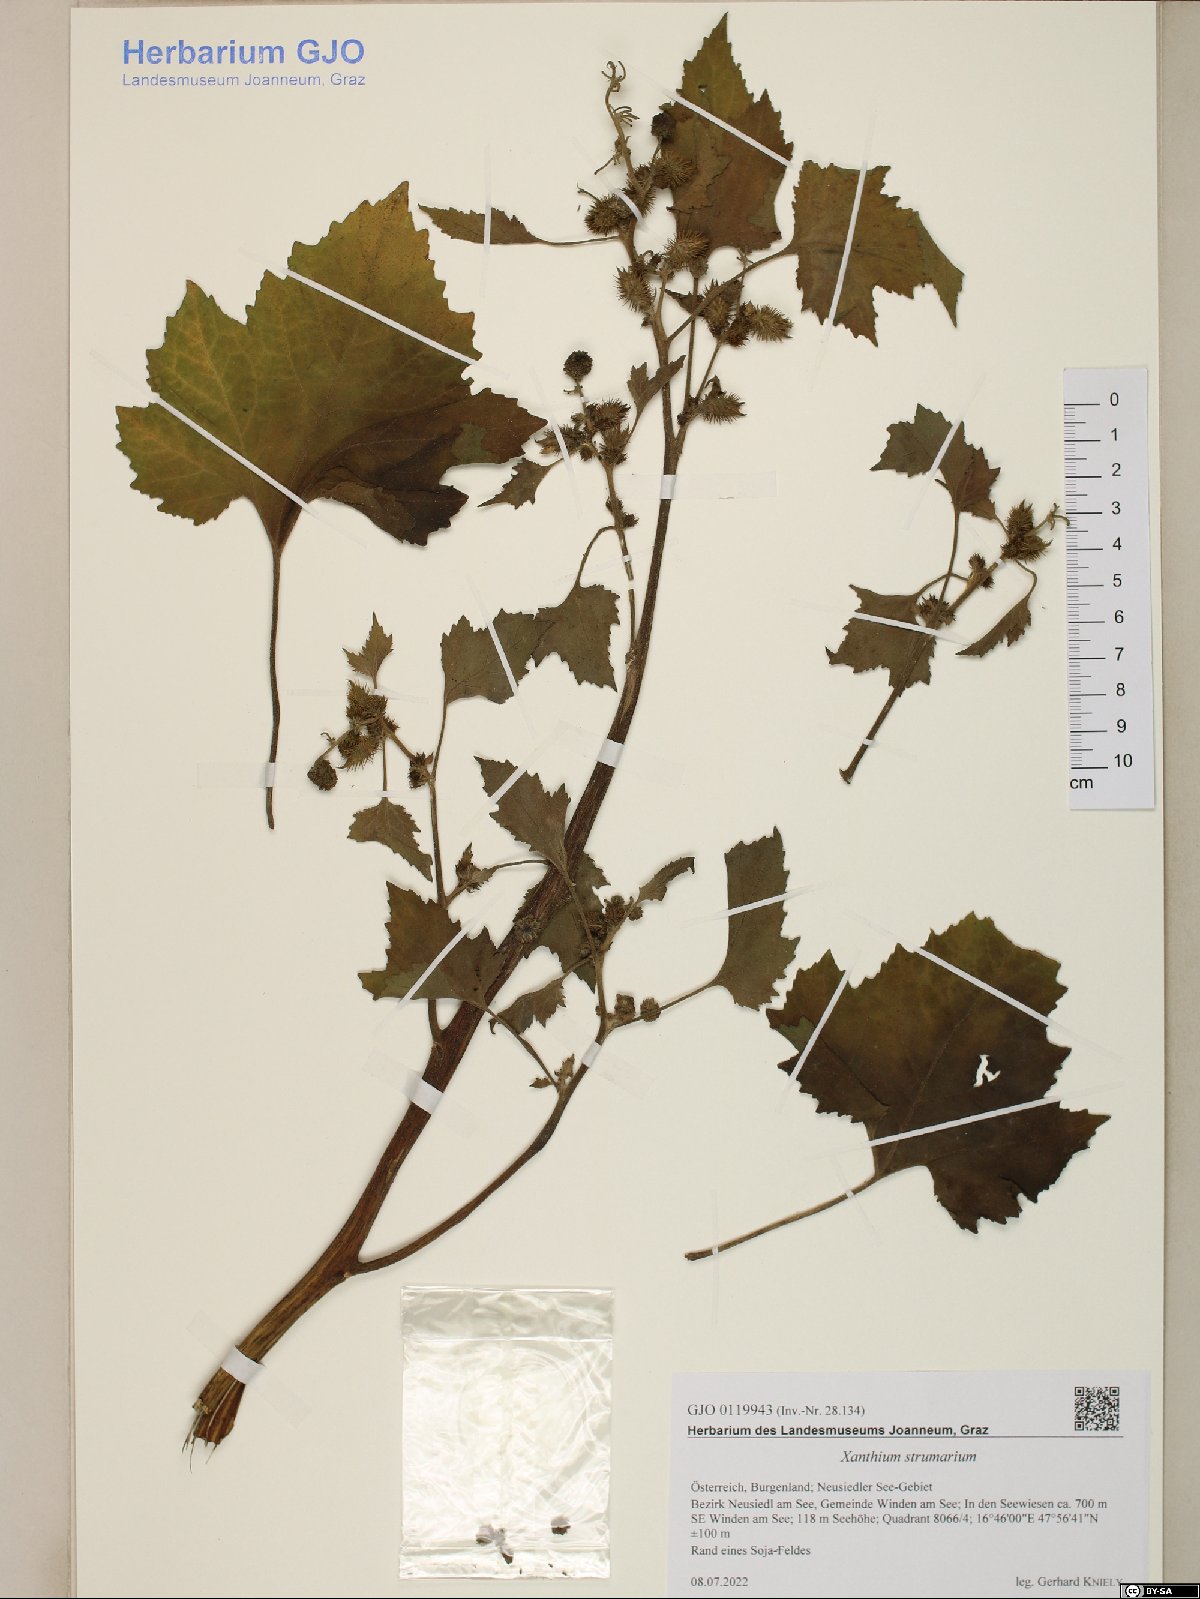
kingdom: Plantae
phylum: Tracheophyta
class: Magnoliopsida
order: Asterales
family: Asteraceae
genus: Xanthium
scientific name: Xanthium strumarium
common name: Rough cocklebur
